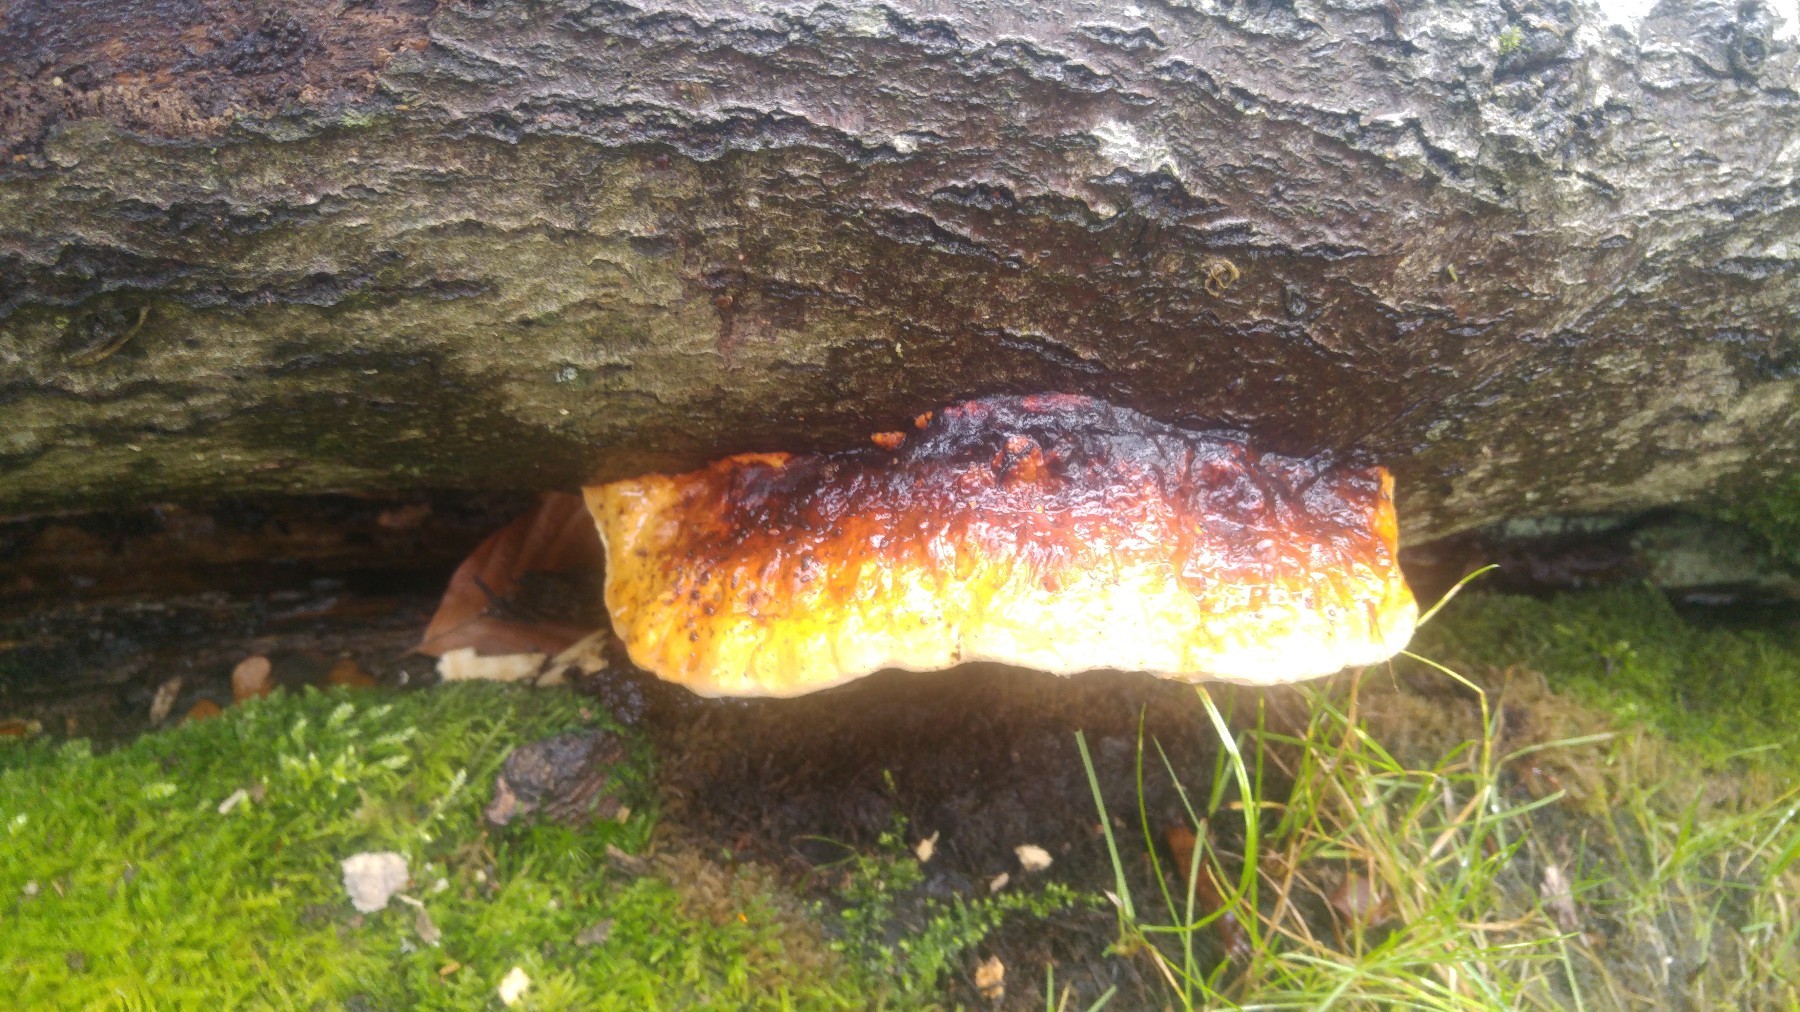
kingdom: Fungi
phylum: Basidiomycota
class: Agaricomycetes
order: Polyporales
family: Fomitopsidaceae
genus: Fomitopsis
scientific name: Fomitopsis pinicola
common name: randbæltet hovporesvamp
